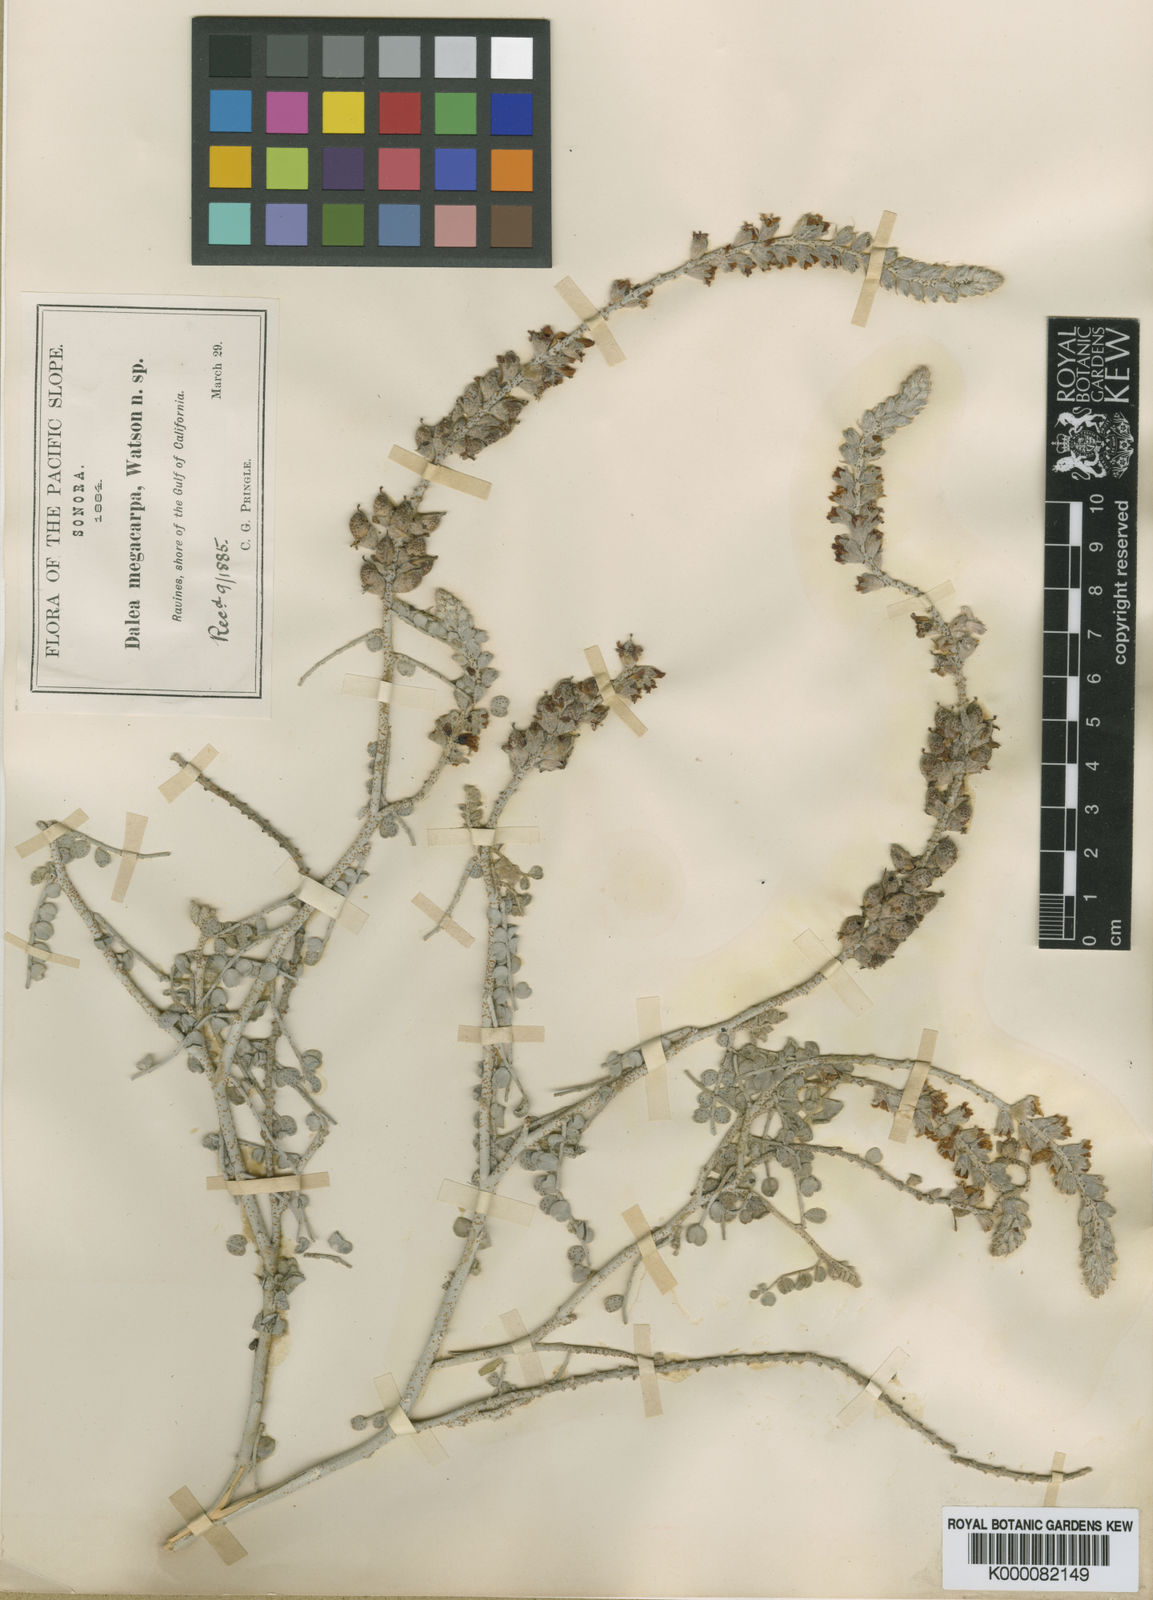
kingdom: Plantae
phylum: Tracheophyta
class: Magnoliopsida
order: Fabales
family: Fabaceae
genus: Errazurizia
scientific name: Errazurizia megacarpa
